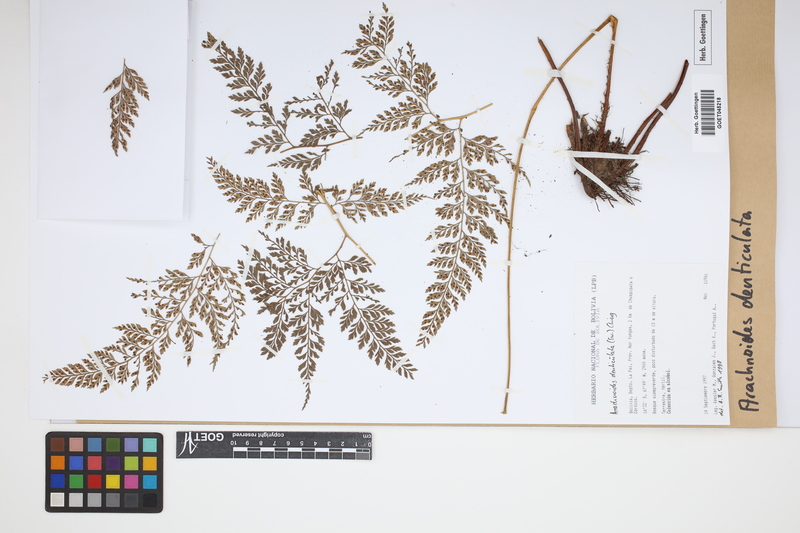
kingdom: Plantae
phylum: Tracheophyta
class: Polypodiopsida
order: Polypodiales
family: Dryopteridaceae
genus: Arachniodes
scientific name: Arachniodes denticulata
